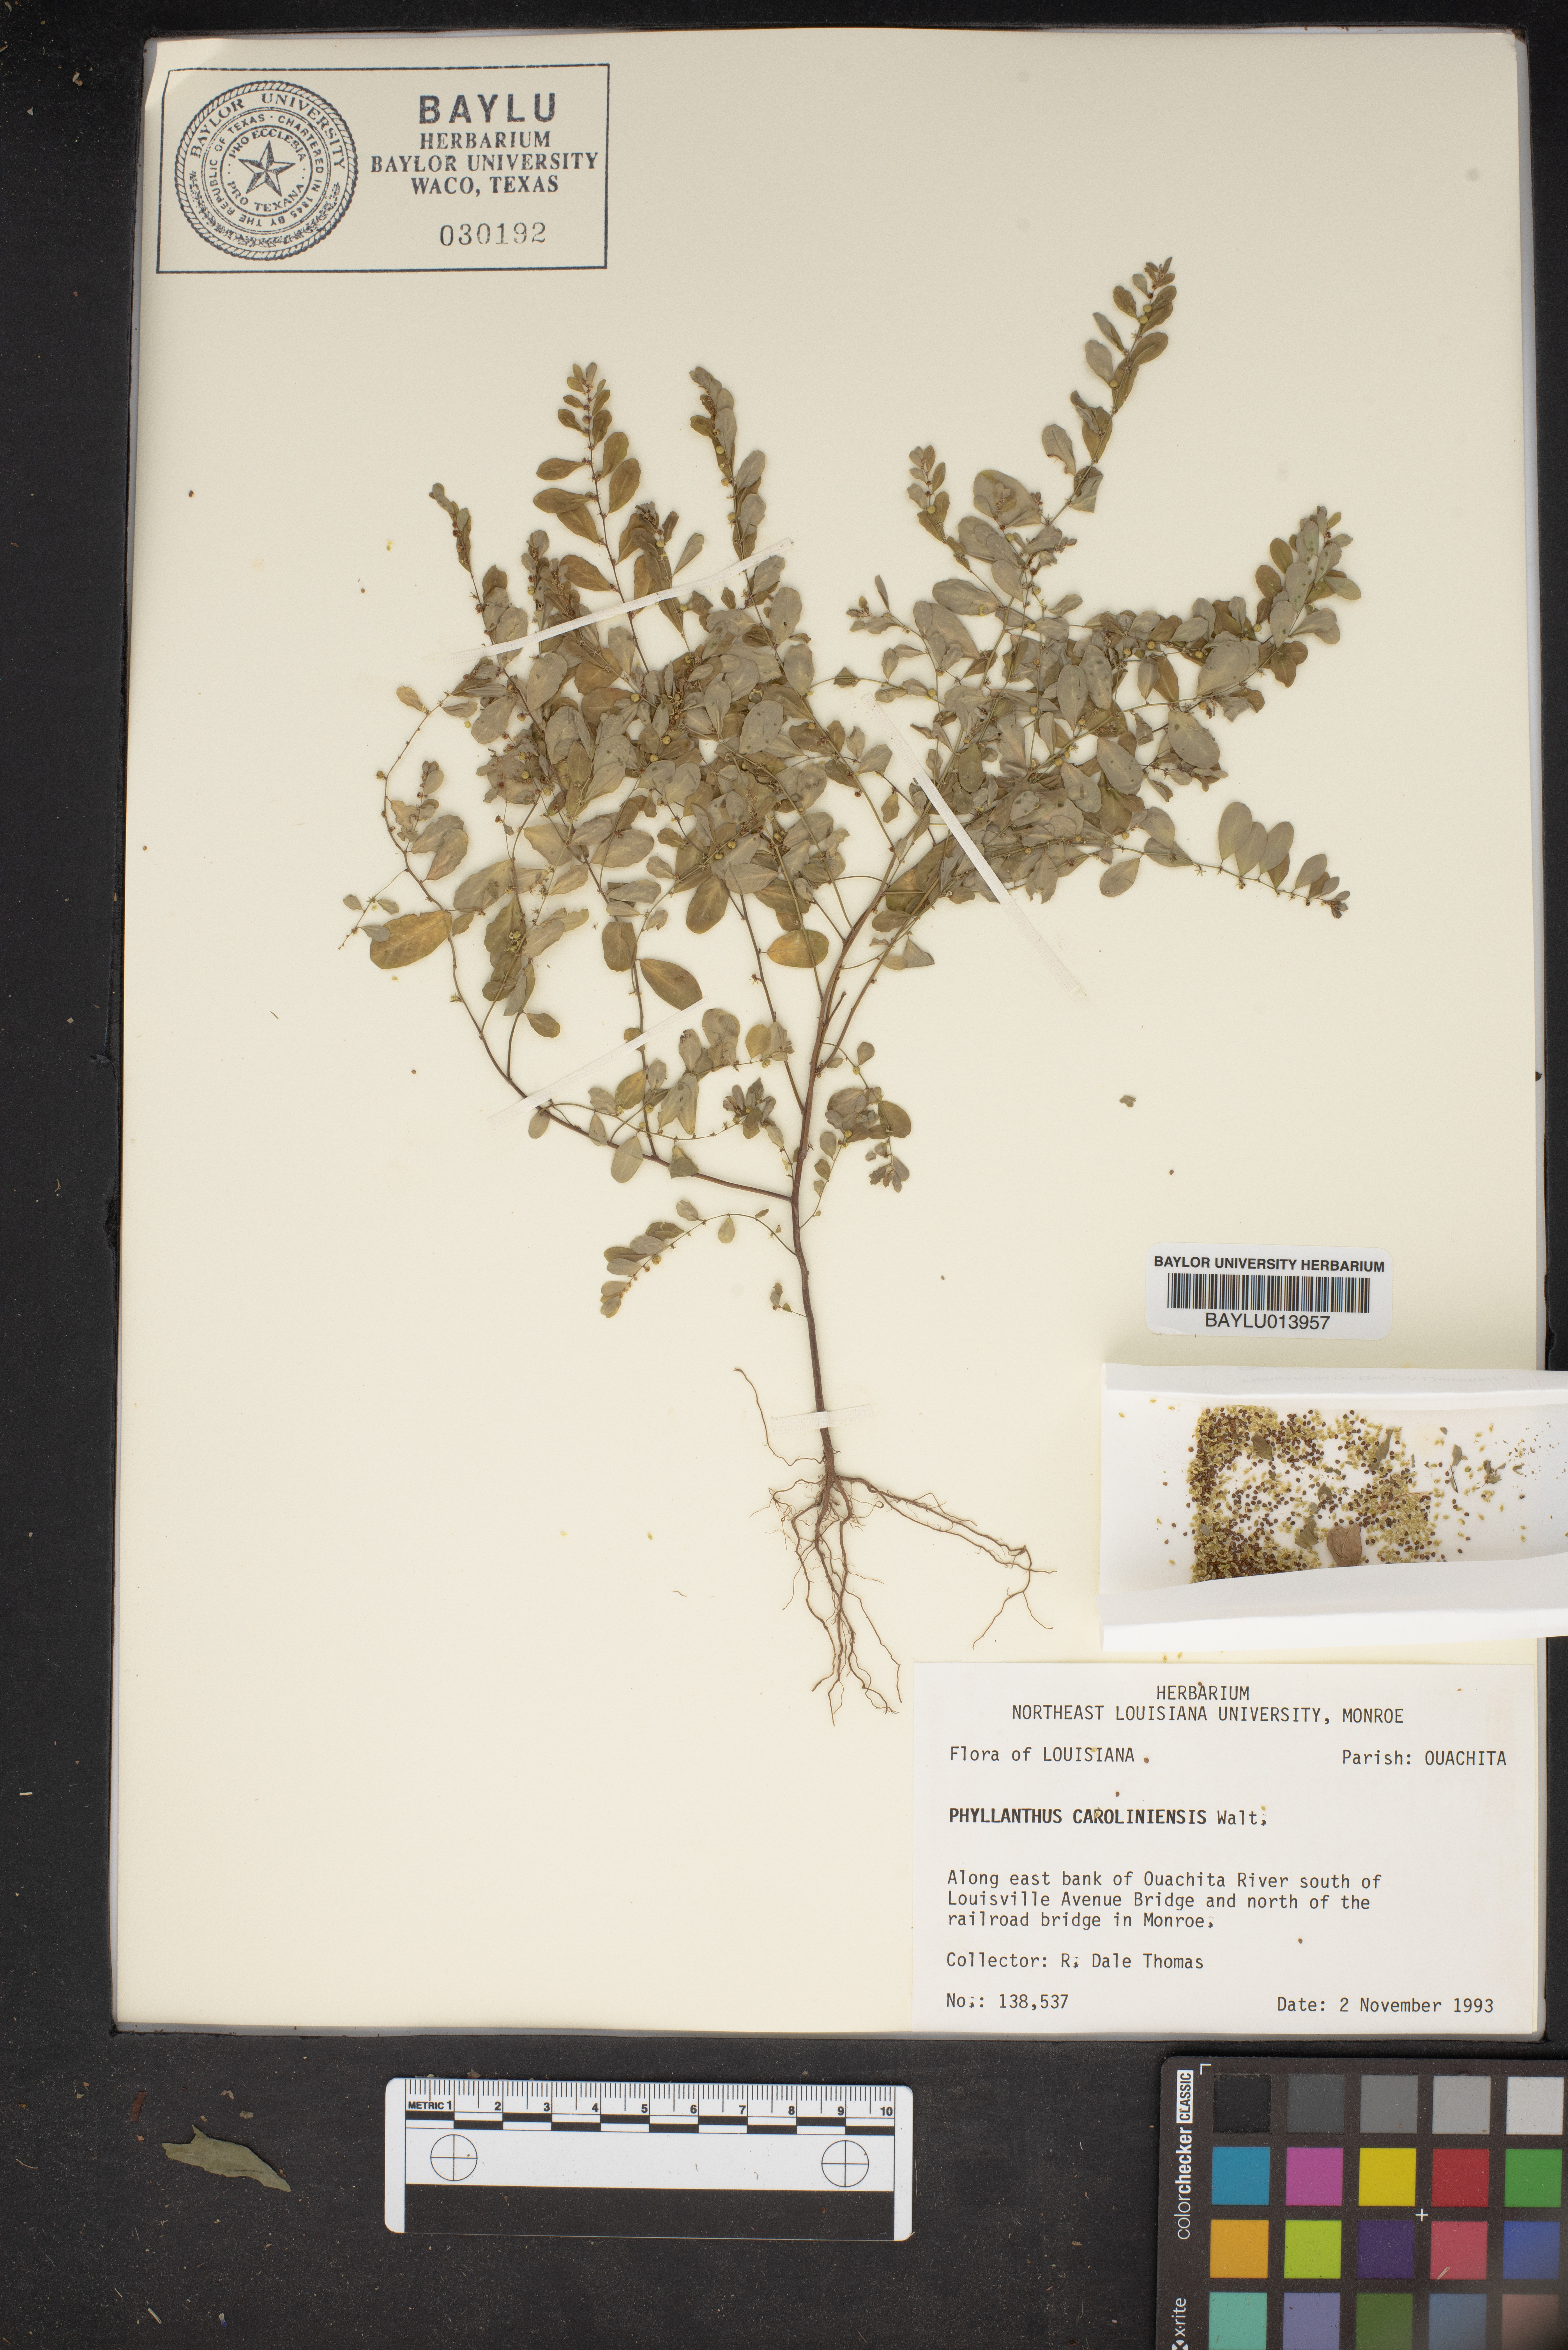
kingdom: Plantae
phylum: Tracheophyta
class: Magnoliopsida
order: Malpighiales
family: Phyllanthaceae
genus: Phyllanthus
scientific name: Phyllanthus carolinensis
